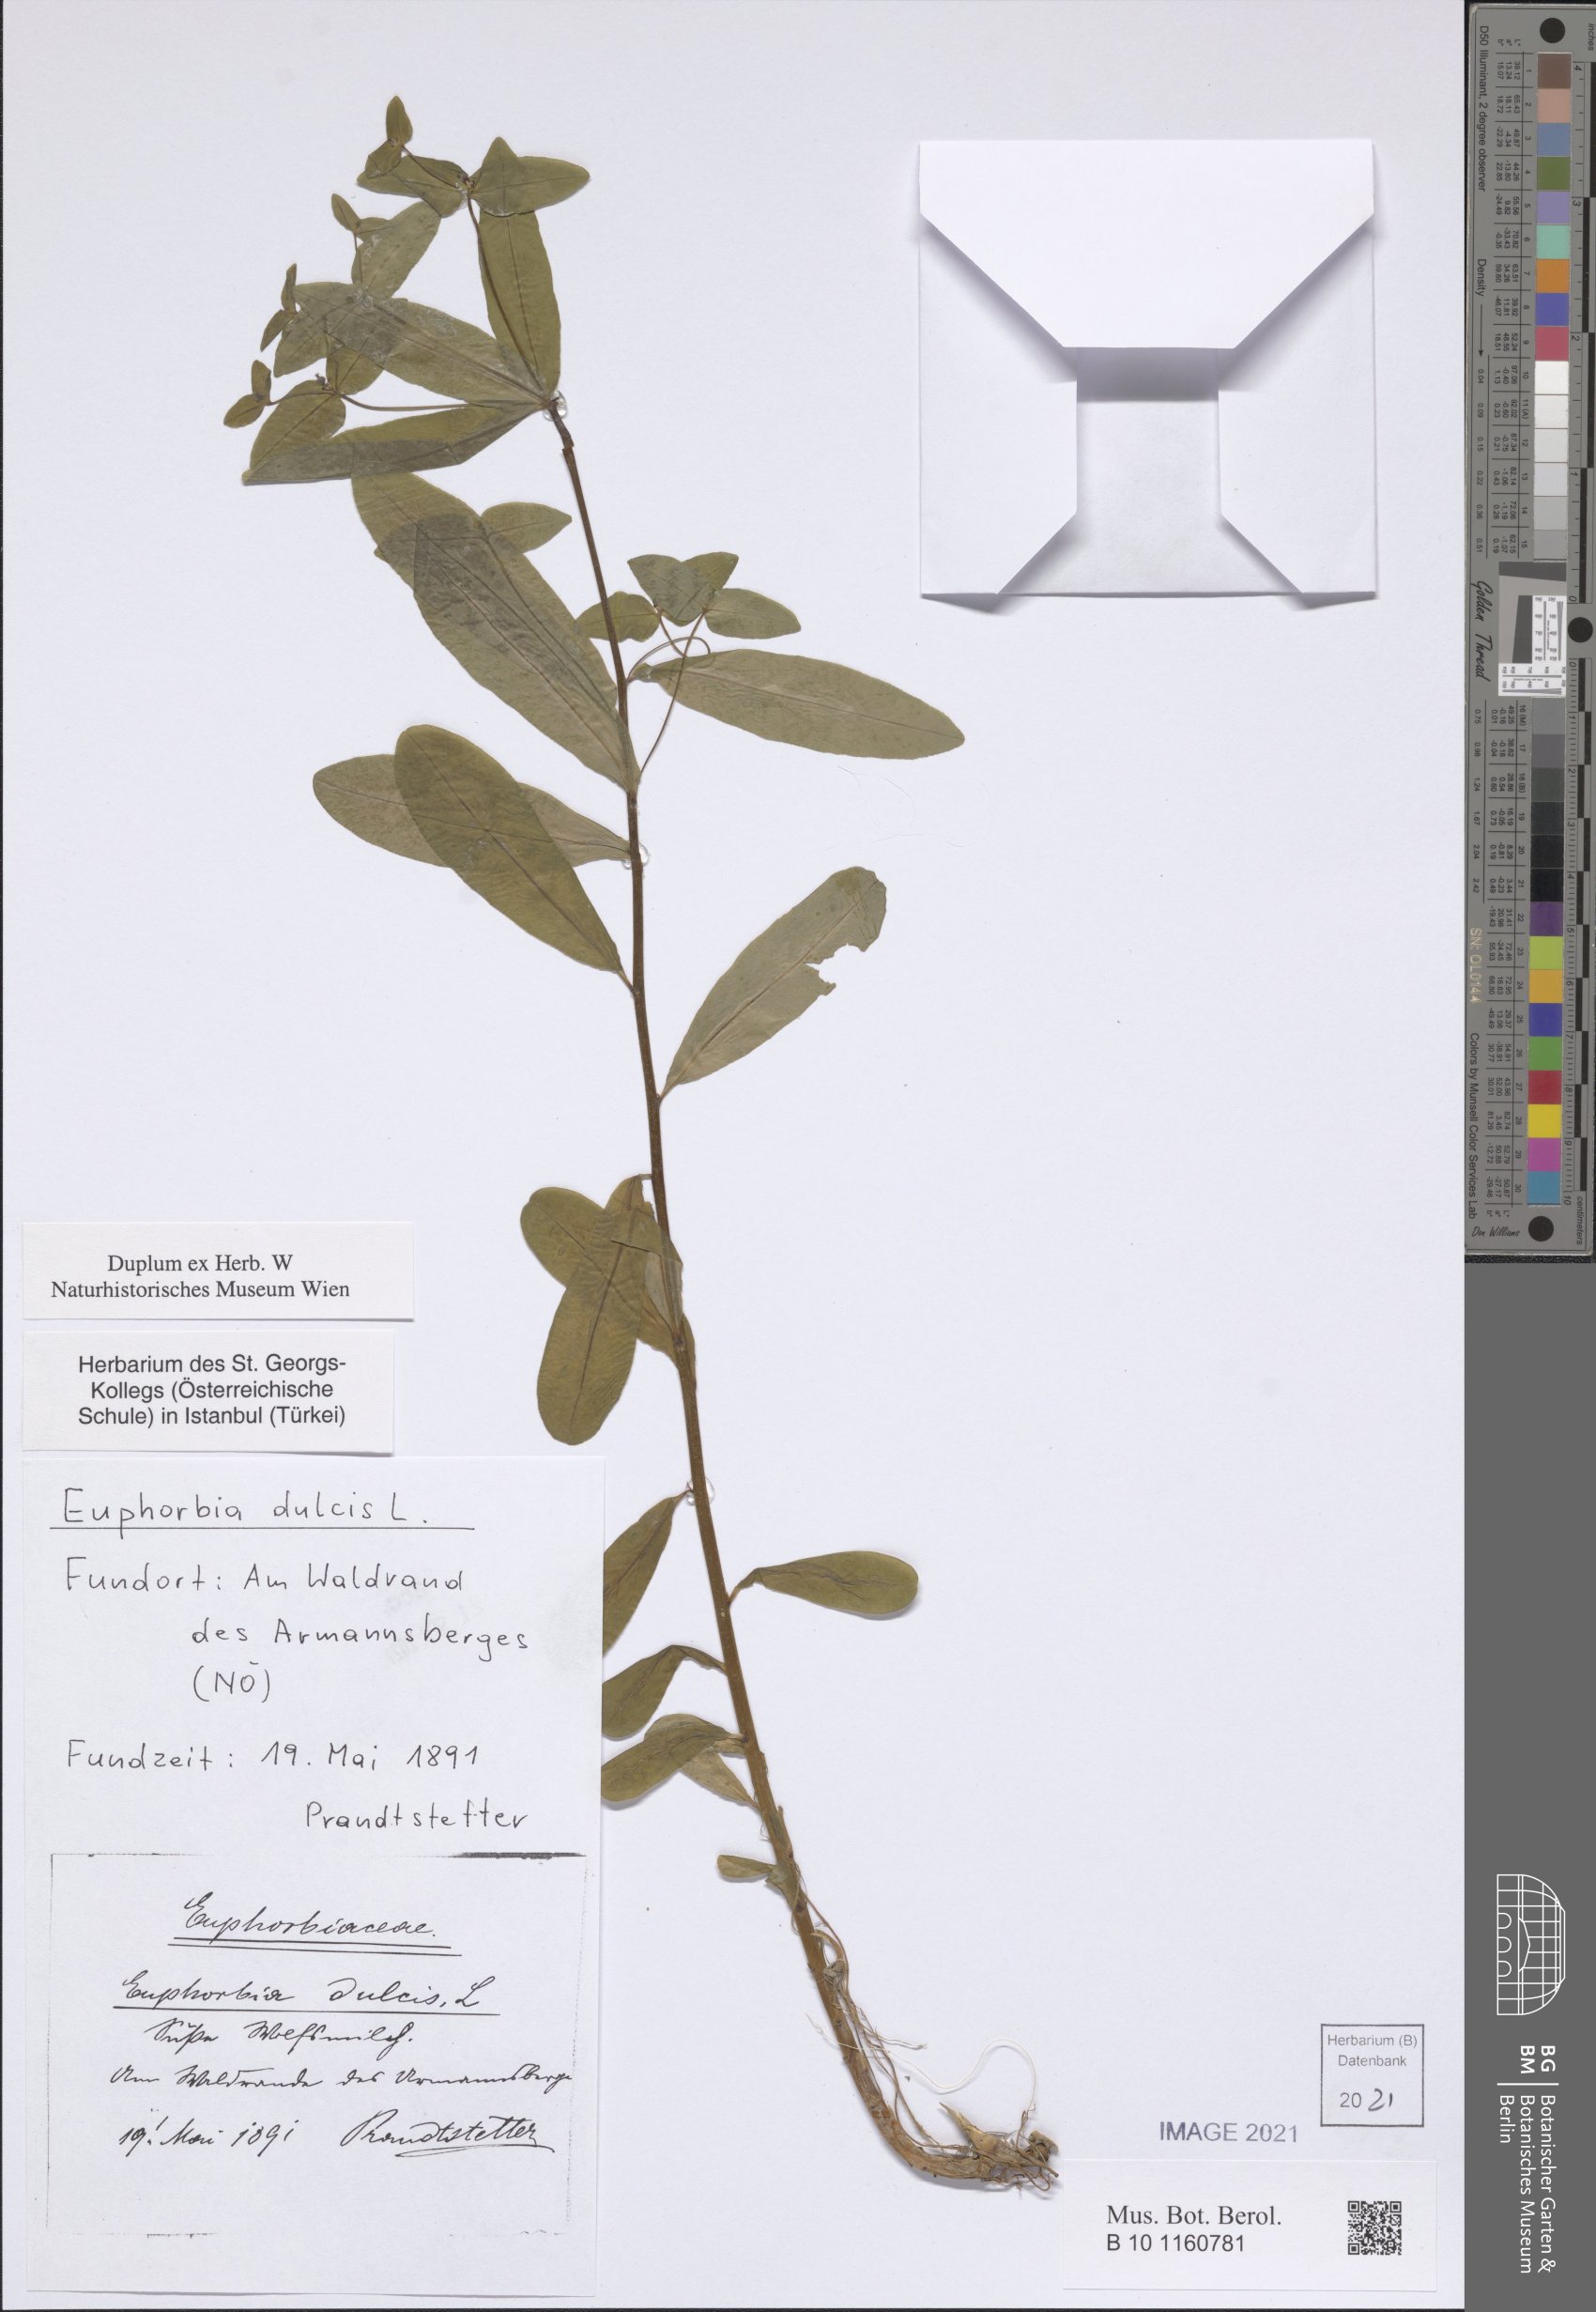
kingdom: Plantae
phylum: Tracheophyta
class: Magnoliopsida
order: Malpighiales
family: Euphorbiaceae
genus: Euphorbia
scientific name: Euphorbia dulcis
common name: Sweet spurge
